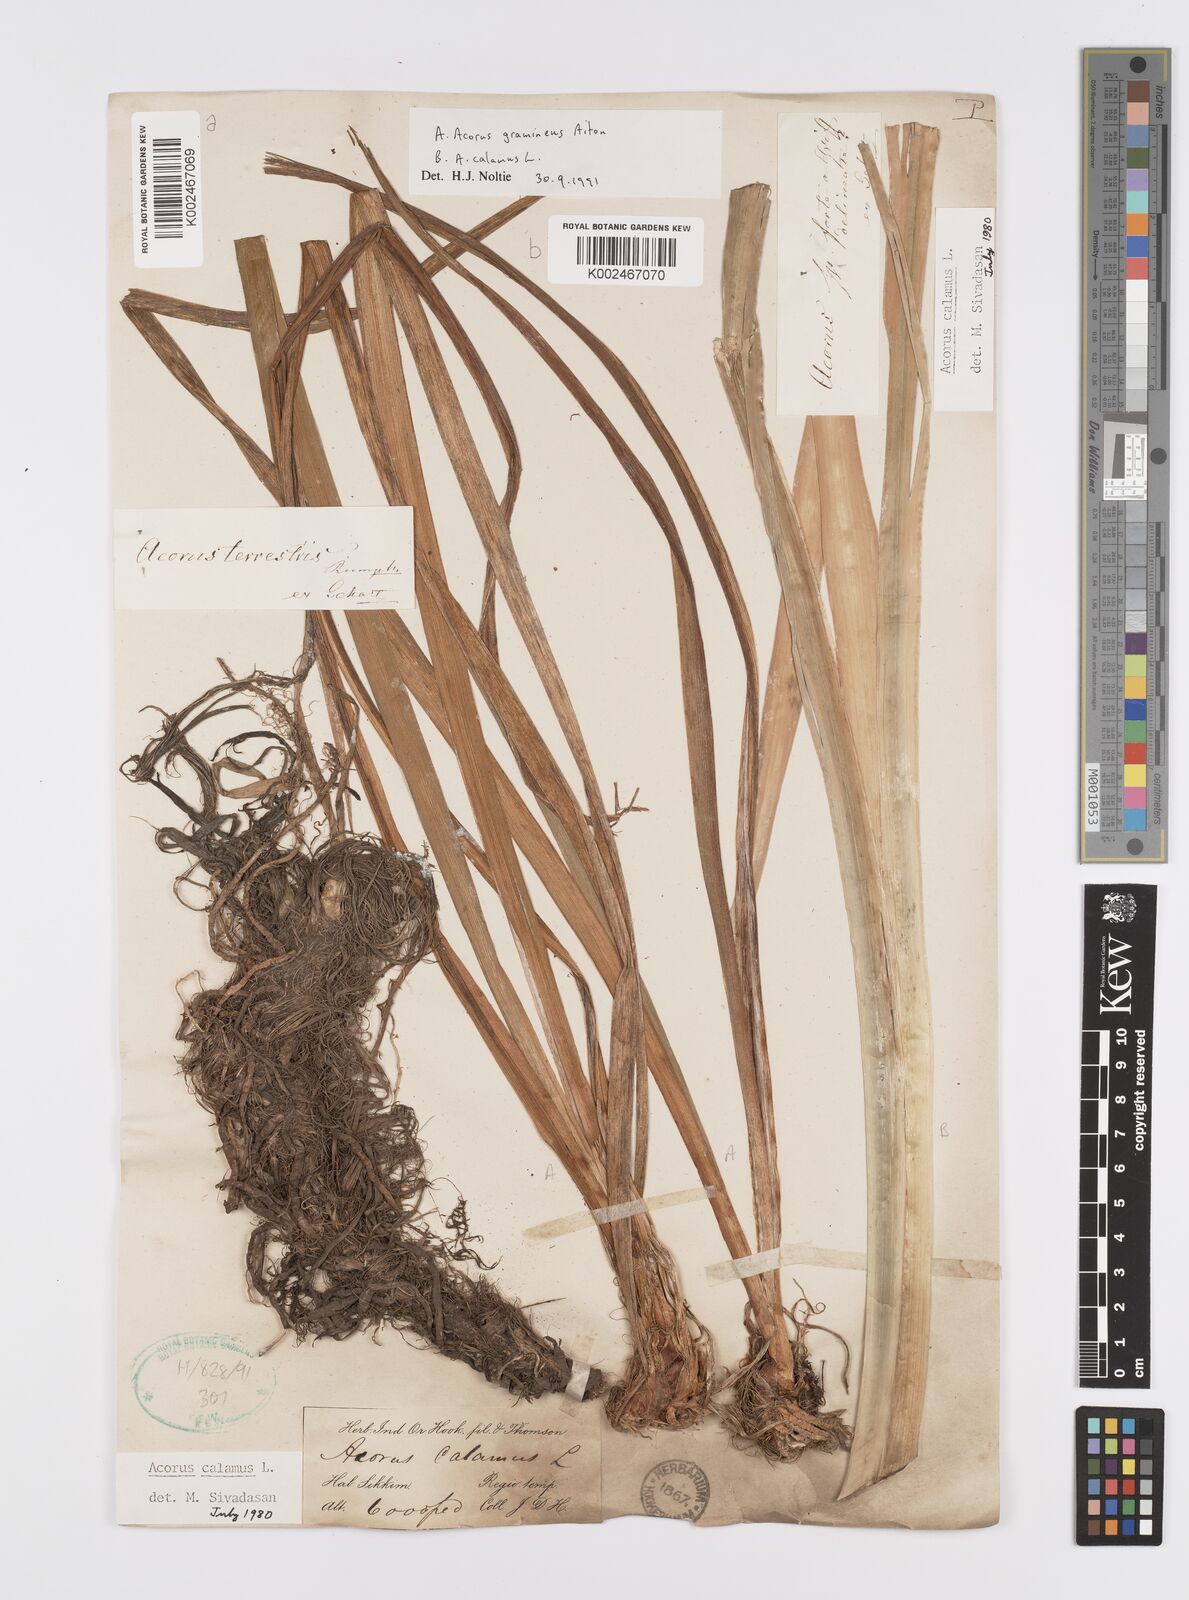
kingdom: Plantae
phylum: Tracheophyta
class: Liliopsida
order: Acorales
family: Acoraceae
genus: Acorus
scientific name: Acorus calamus
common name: Sweet-flag
